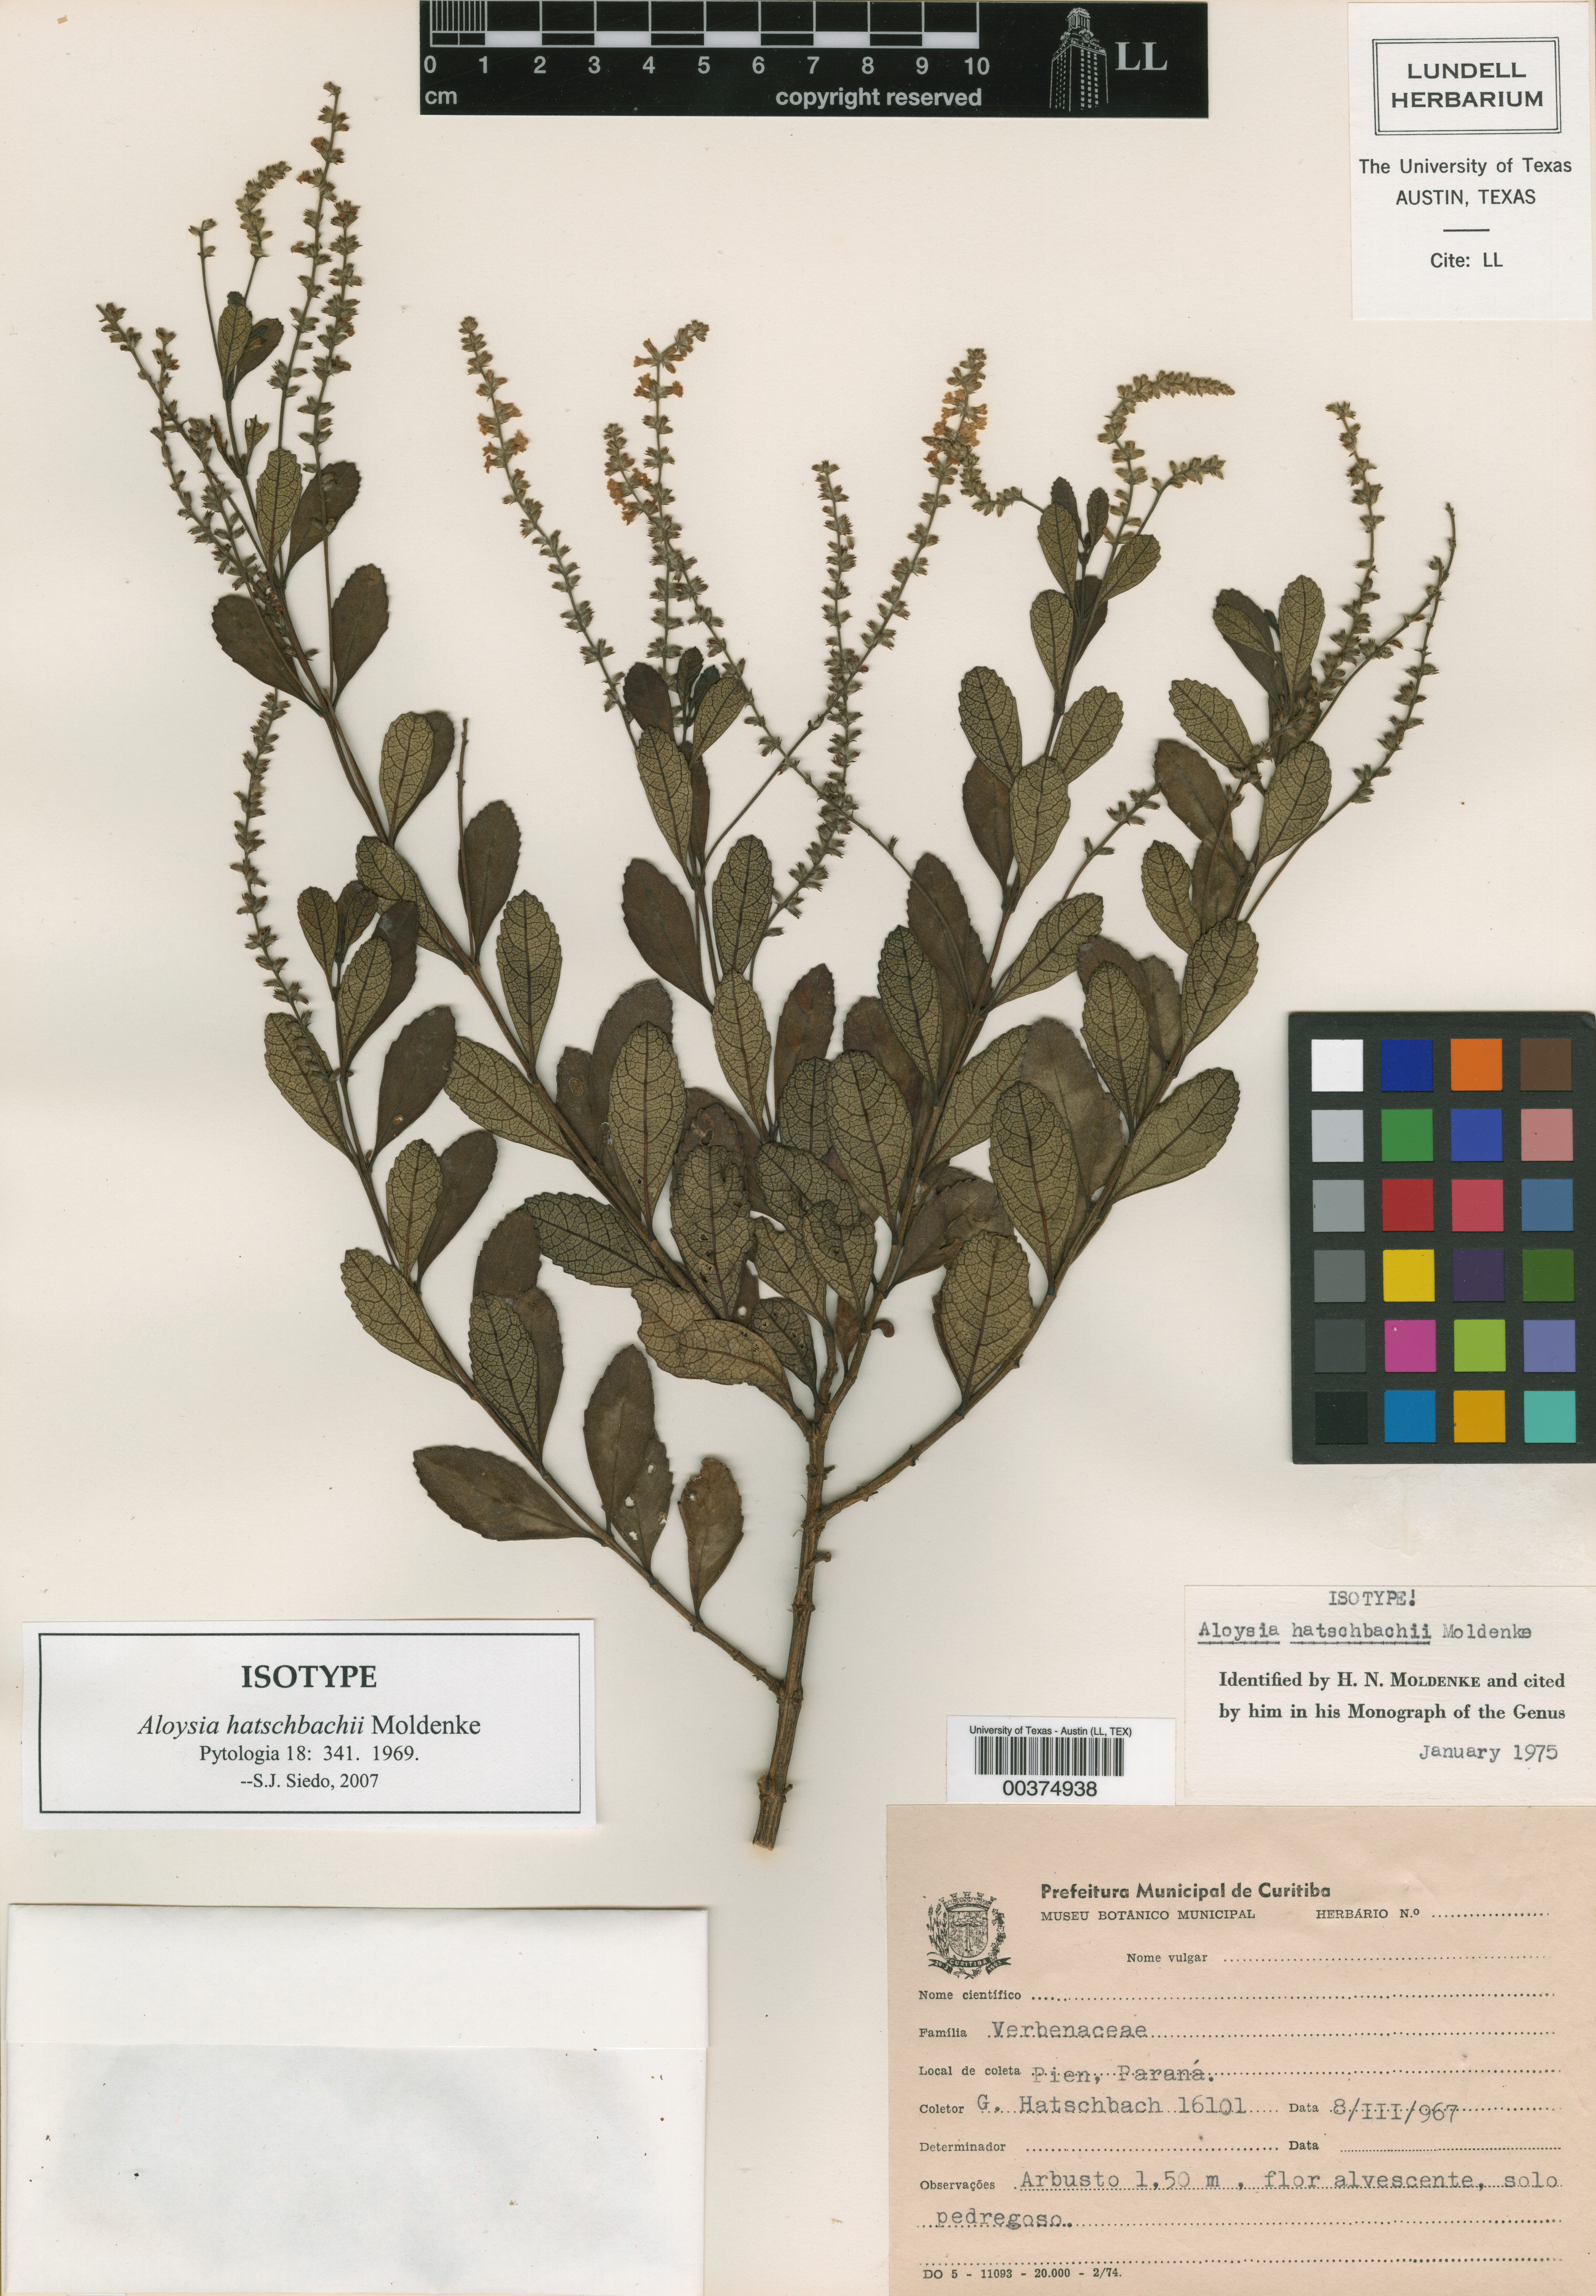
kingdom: Plantae
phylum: Tracheophyta
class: Magnoliopsida
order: Lamiales
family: Verbenaceae
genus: Aloysia
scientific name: Aloysia hatschbachii
